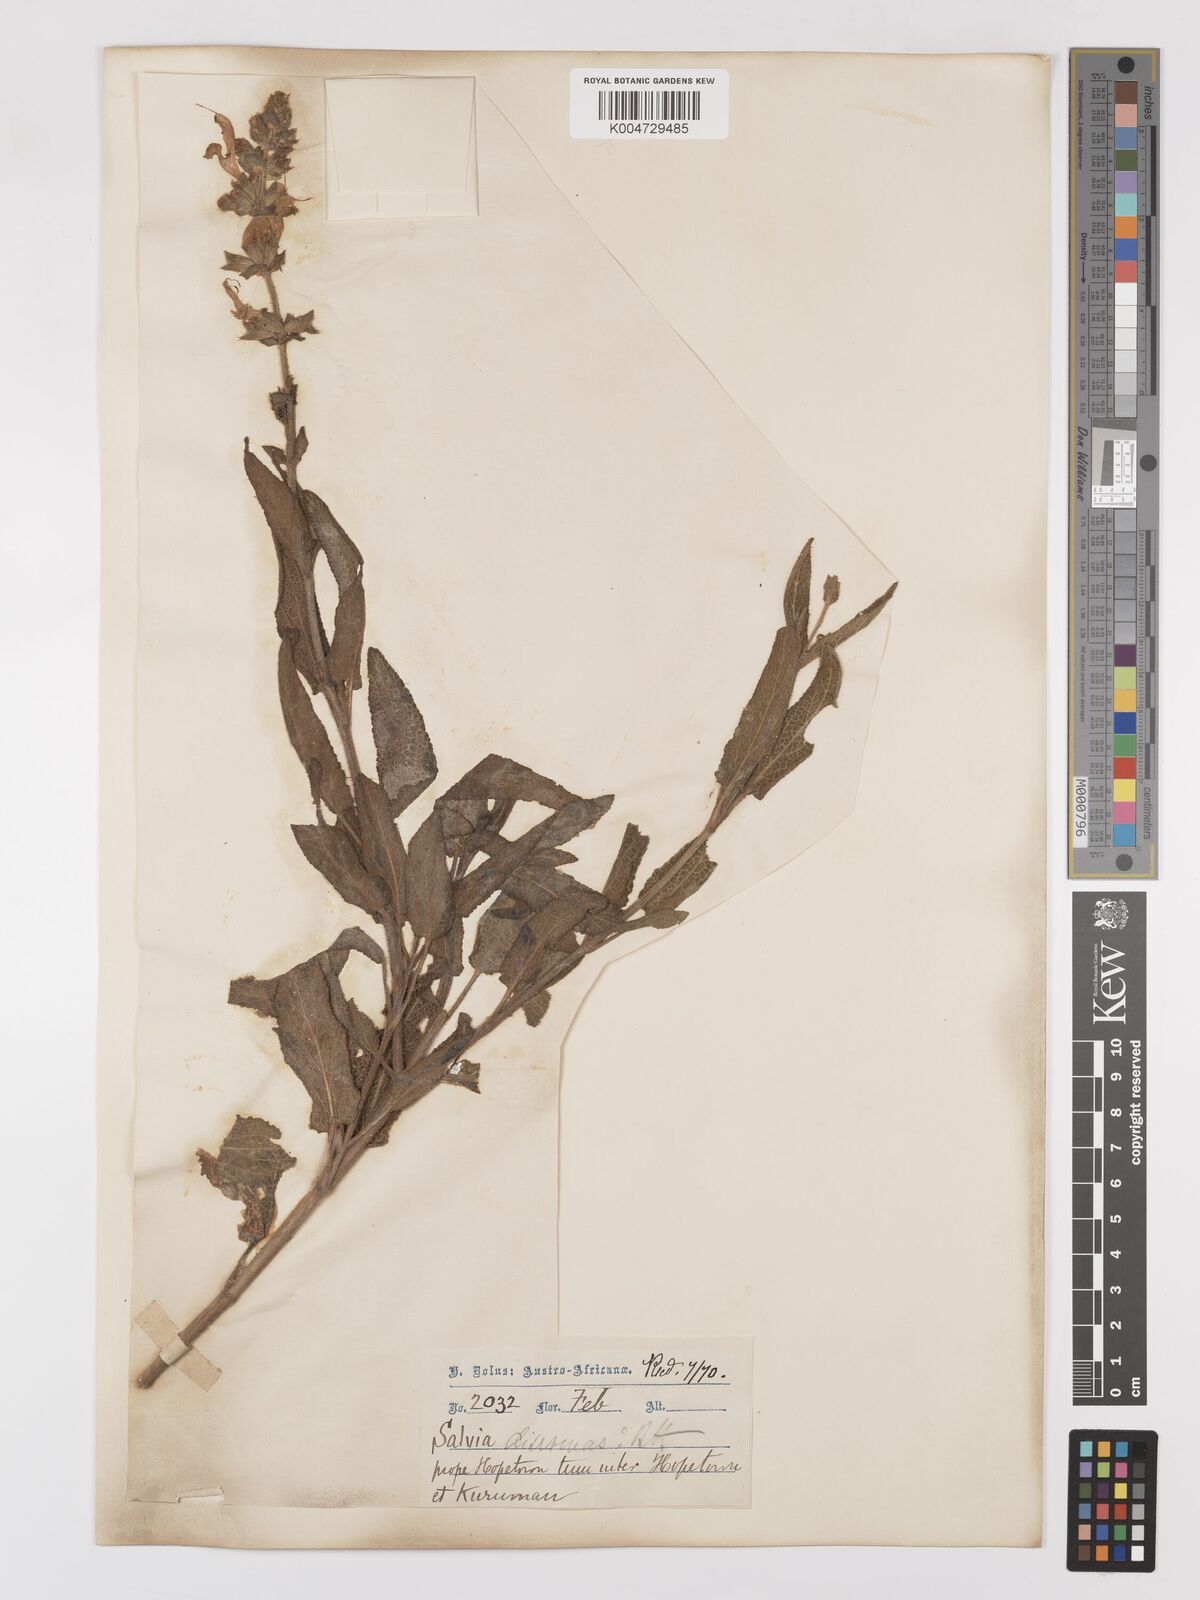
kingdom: Plantae
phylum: Tracheophyta
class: Magnoliopsida
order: Lamiales
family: Lamiaceae
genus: Salvia
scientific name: Salvia
